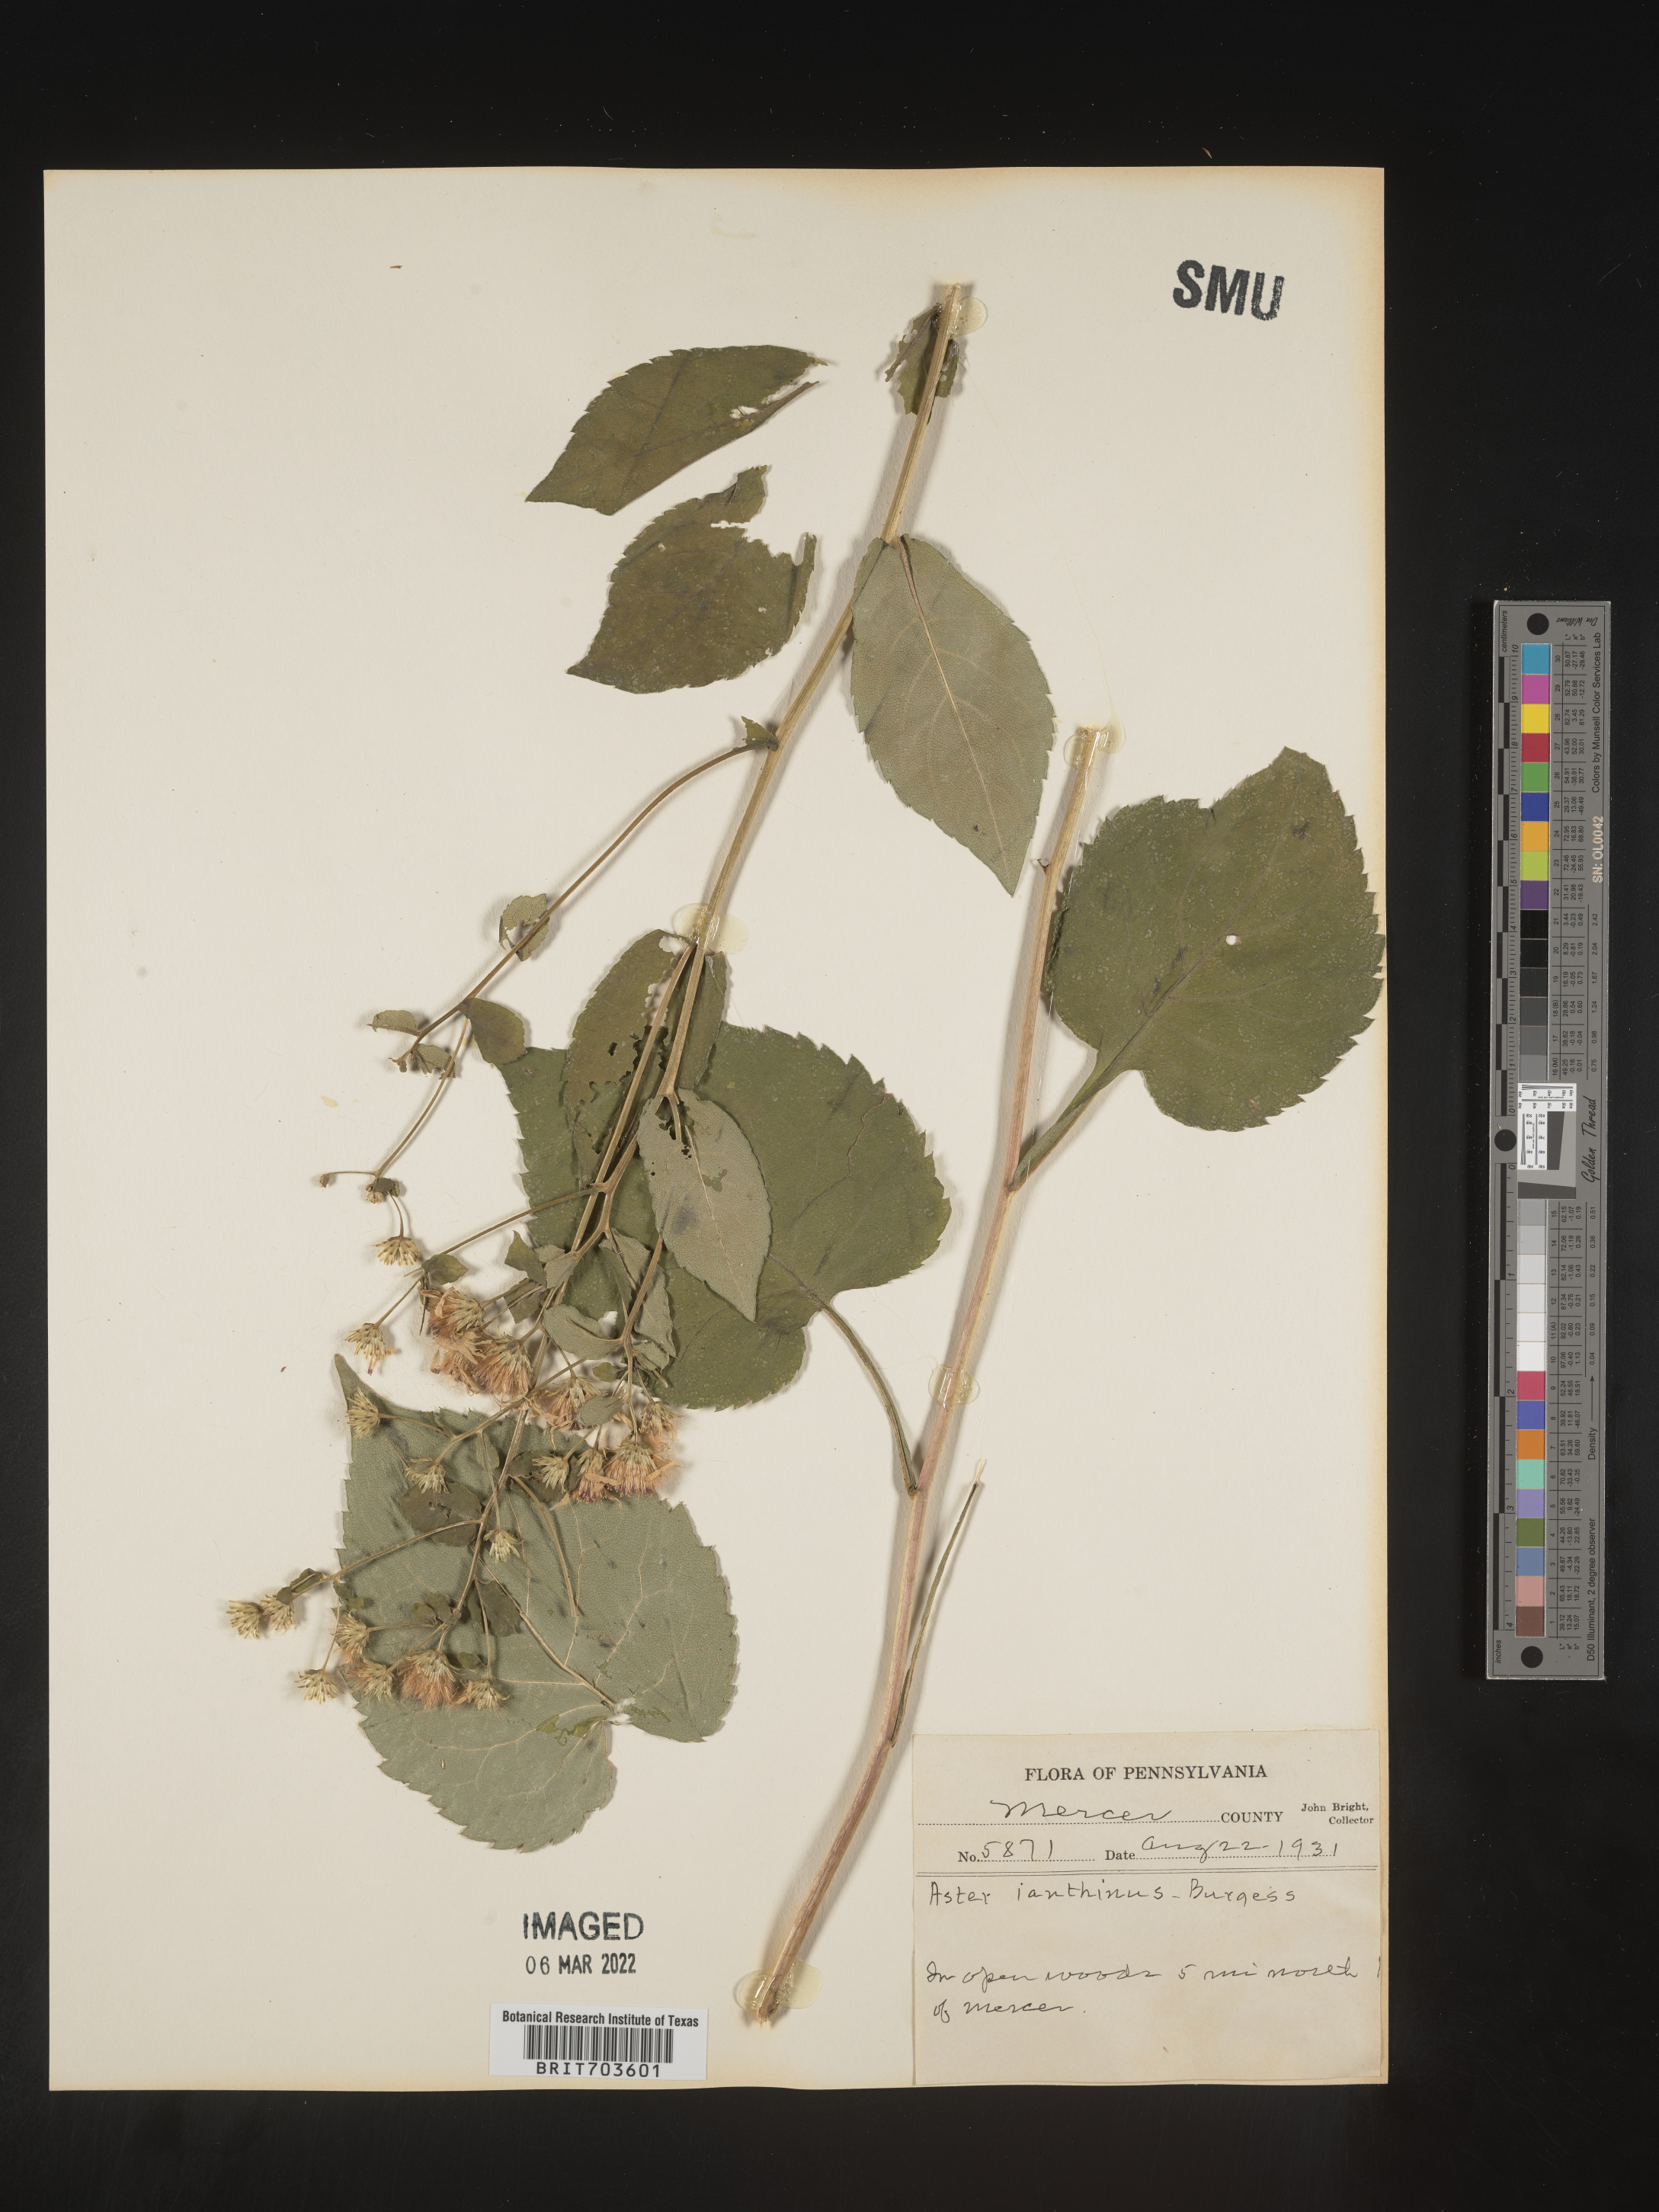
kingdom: Plantae
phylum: Tracheophyta
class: Magnoliopsida
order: Asterales
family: Asteraceae
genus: Eurybia
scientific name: Eurybia macrophylla
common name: Big-leaved aster
